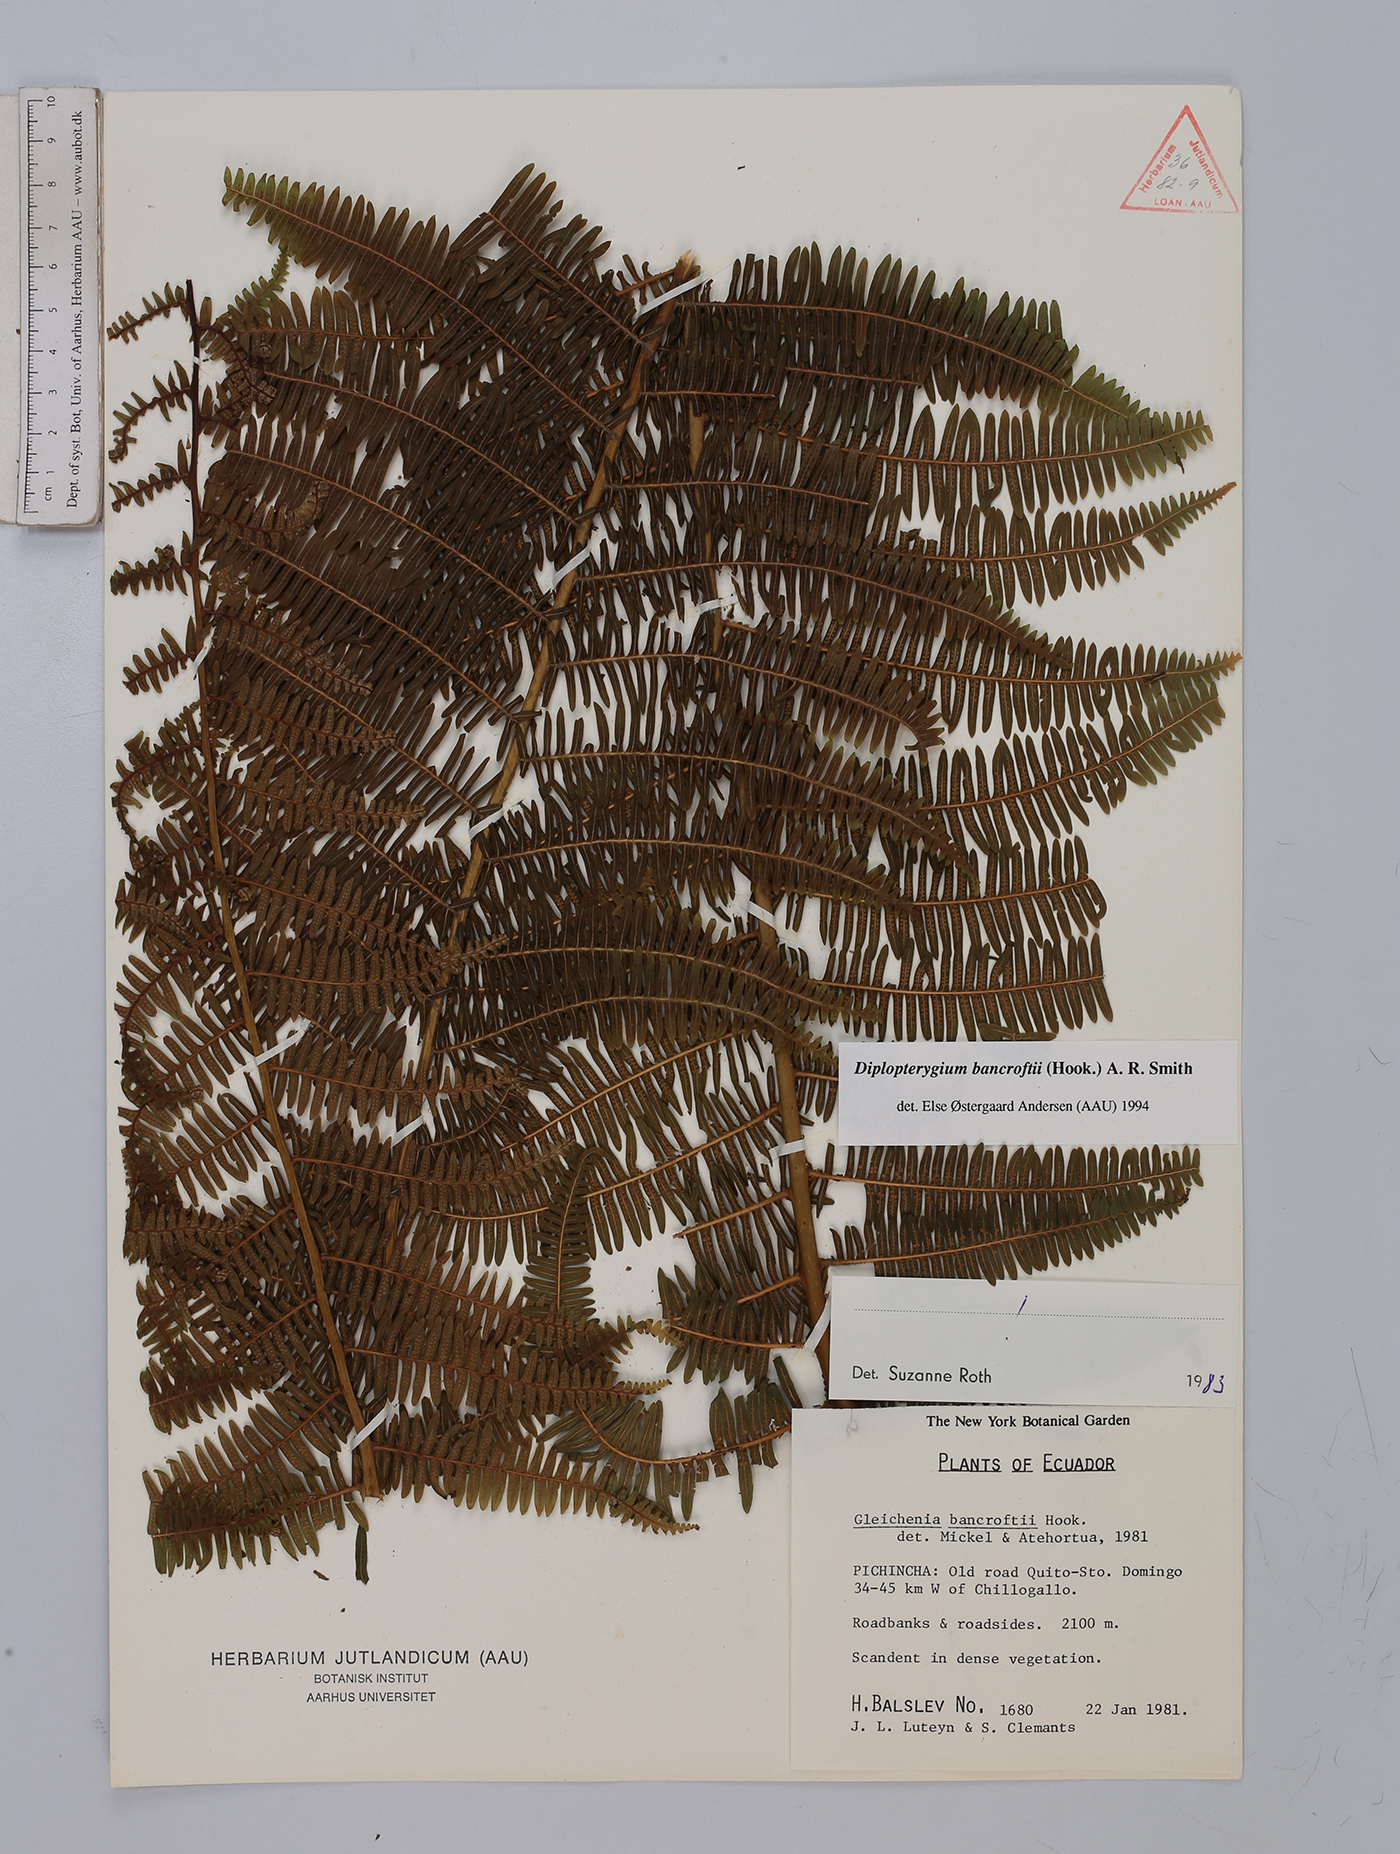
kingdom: Plantae
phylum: Tracheophyta
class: Polypodiopsida
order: Gleicheniales
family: Gleicheniaceae
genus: Diplopterygium
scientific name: Diplopterygium bancroftii
